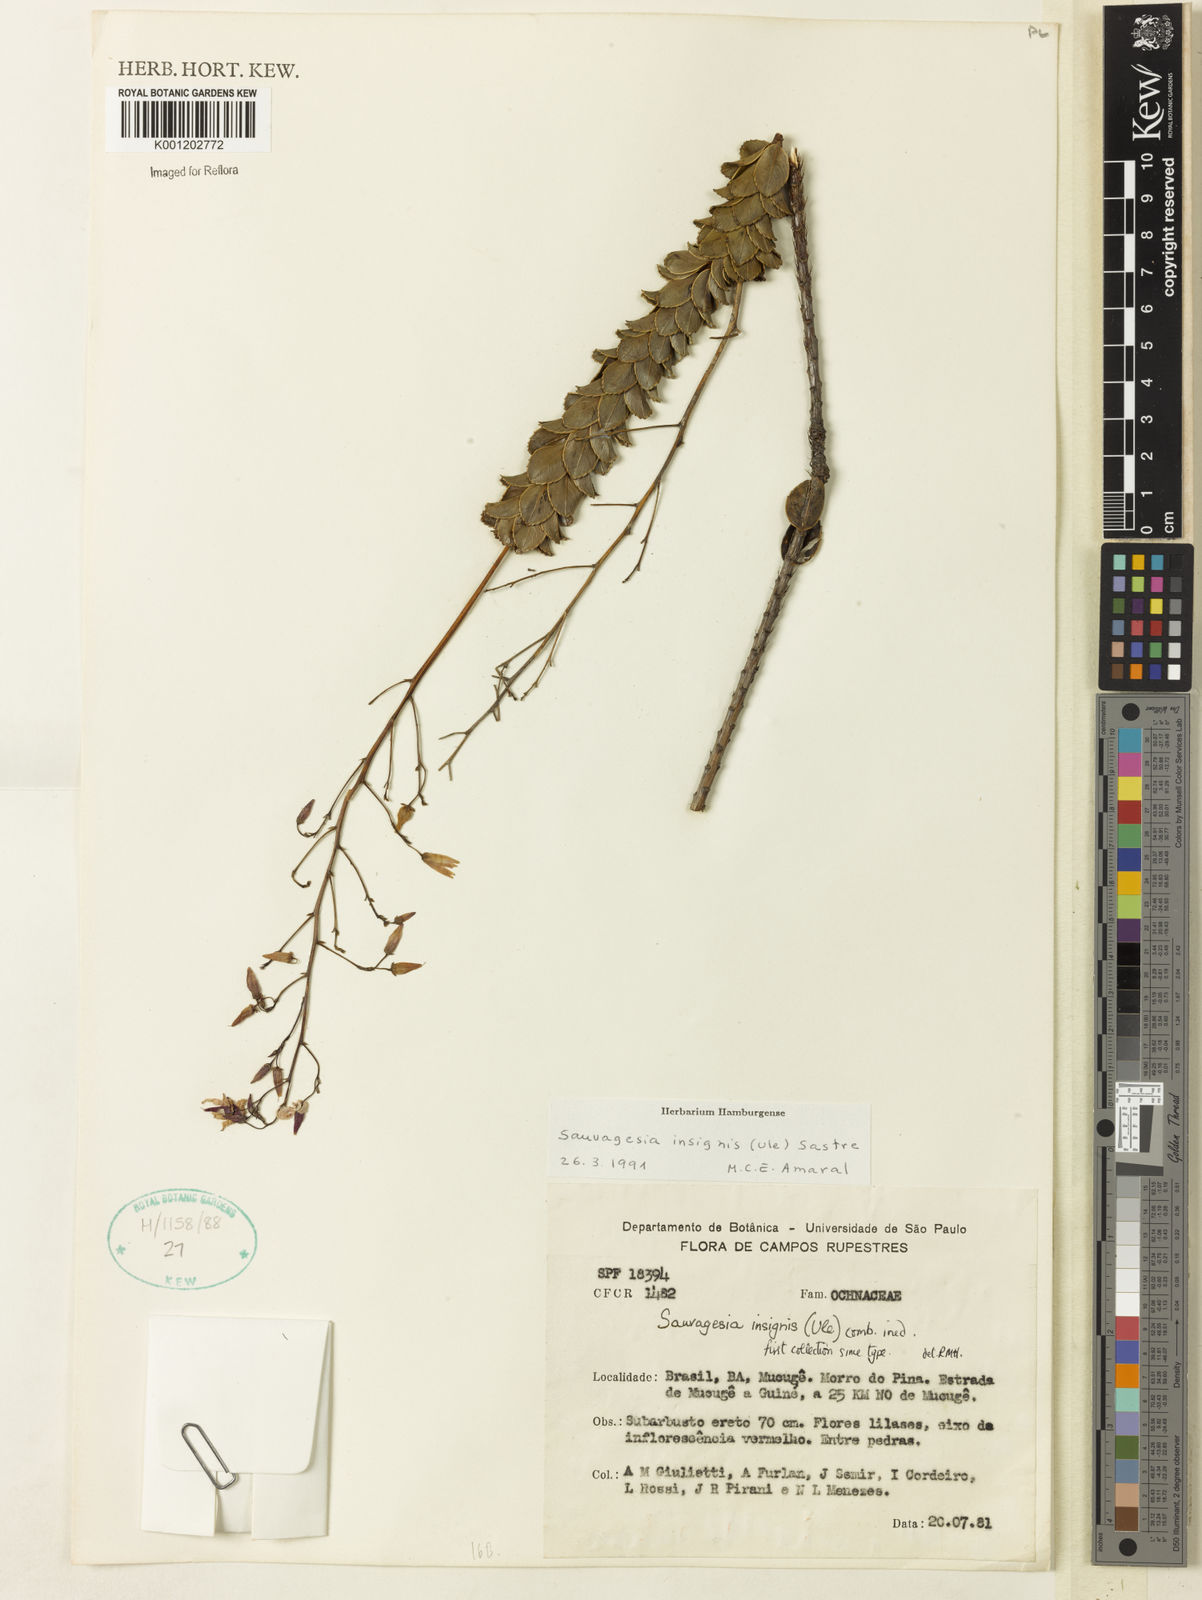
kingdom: Plantae
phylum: Tracheophyta
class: Magnoliopsida
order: Malpighiales
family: Ochnaceae
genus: Sauvagesia
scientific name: Sauvagesia insignis
